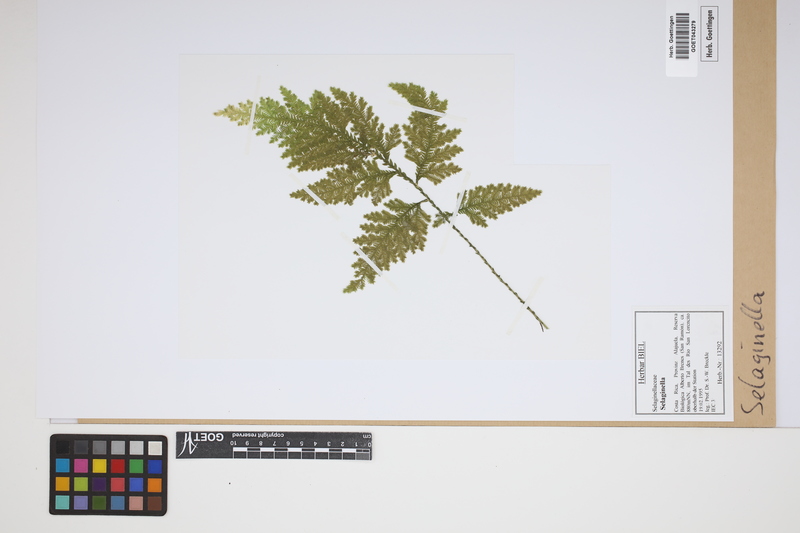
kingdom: Plantae
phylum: Tracheophyta
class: Lycopodiopsida
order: Selaginellales
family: Selaginellaceae
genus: Selaginella
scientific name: Selaginella
